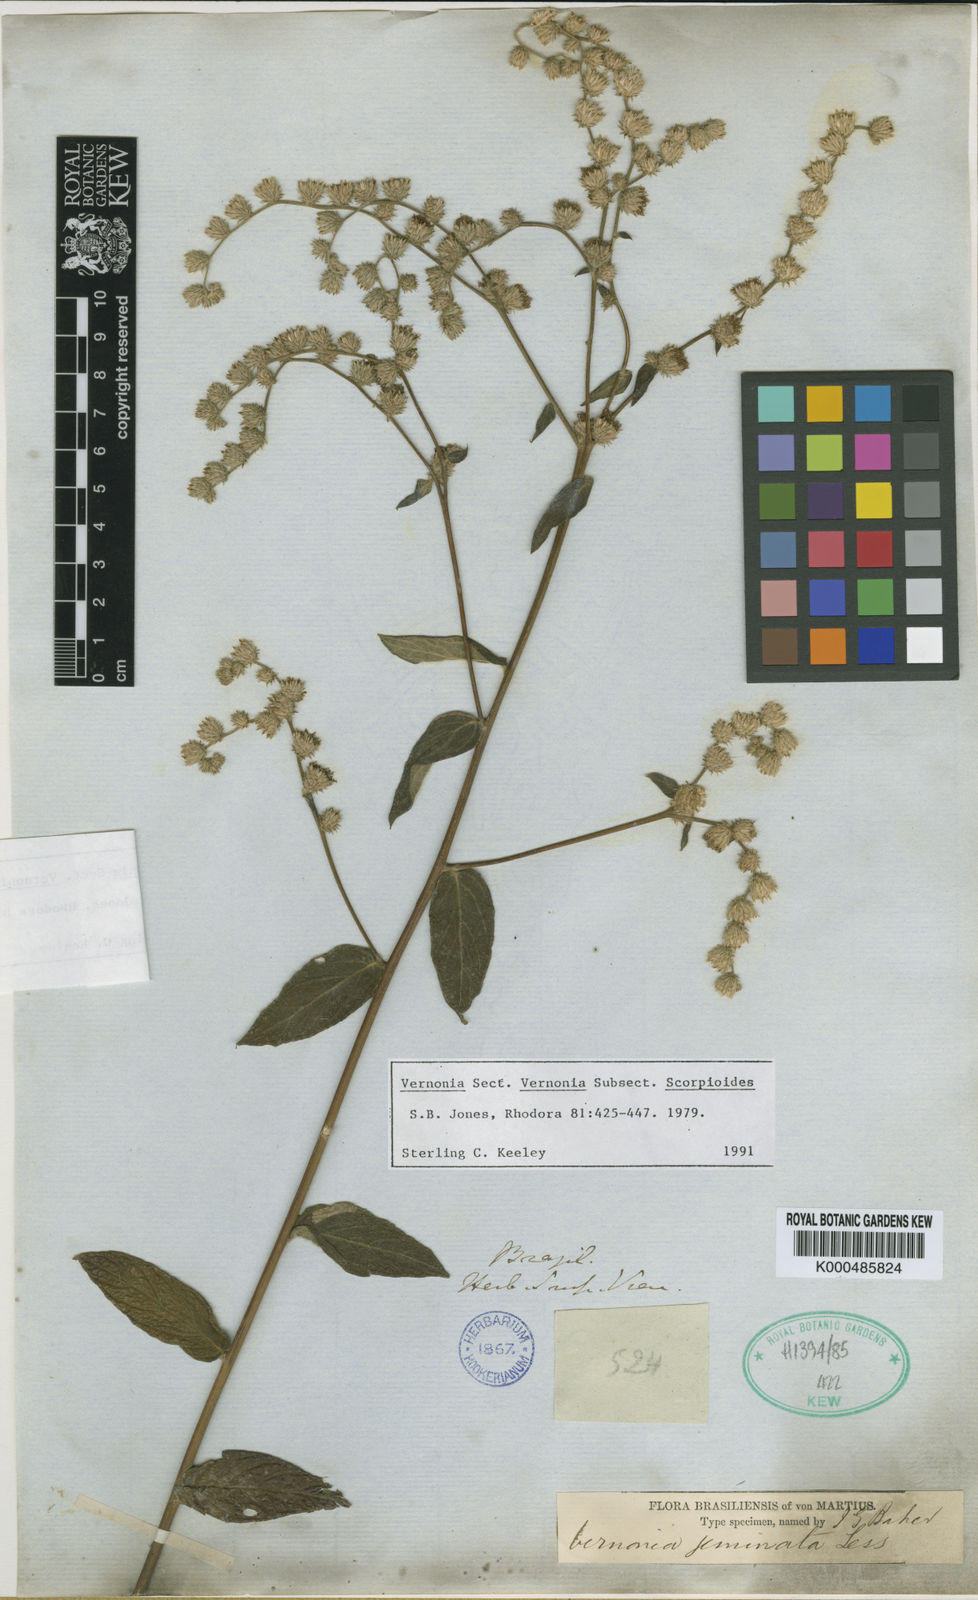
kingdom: Plantae
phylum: Tracheophyta
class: Magnoliopsida
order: Asterales
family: Asteraceae
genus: Vernonia
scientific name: Vernonia
